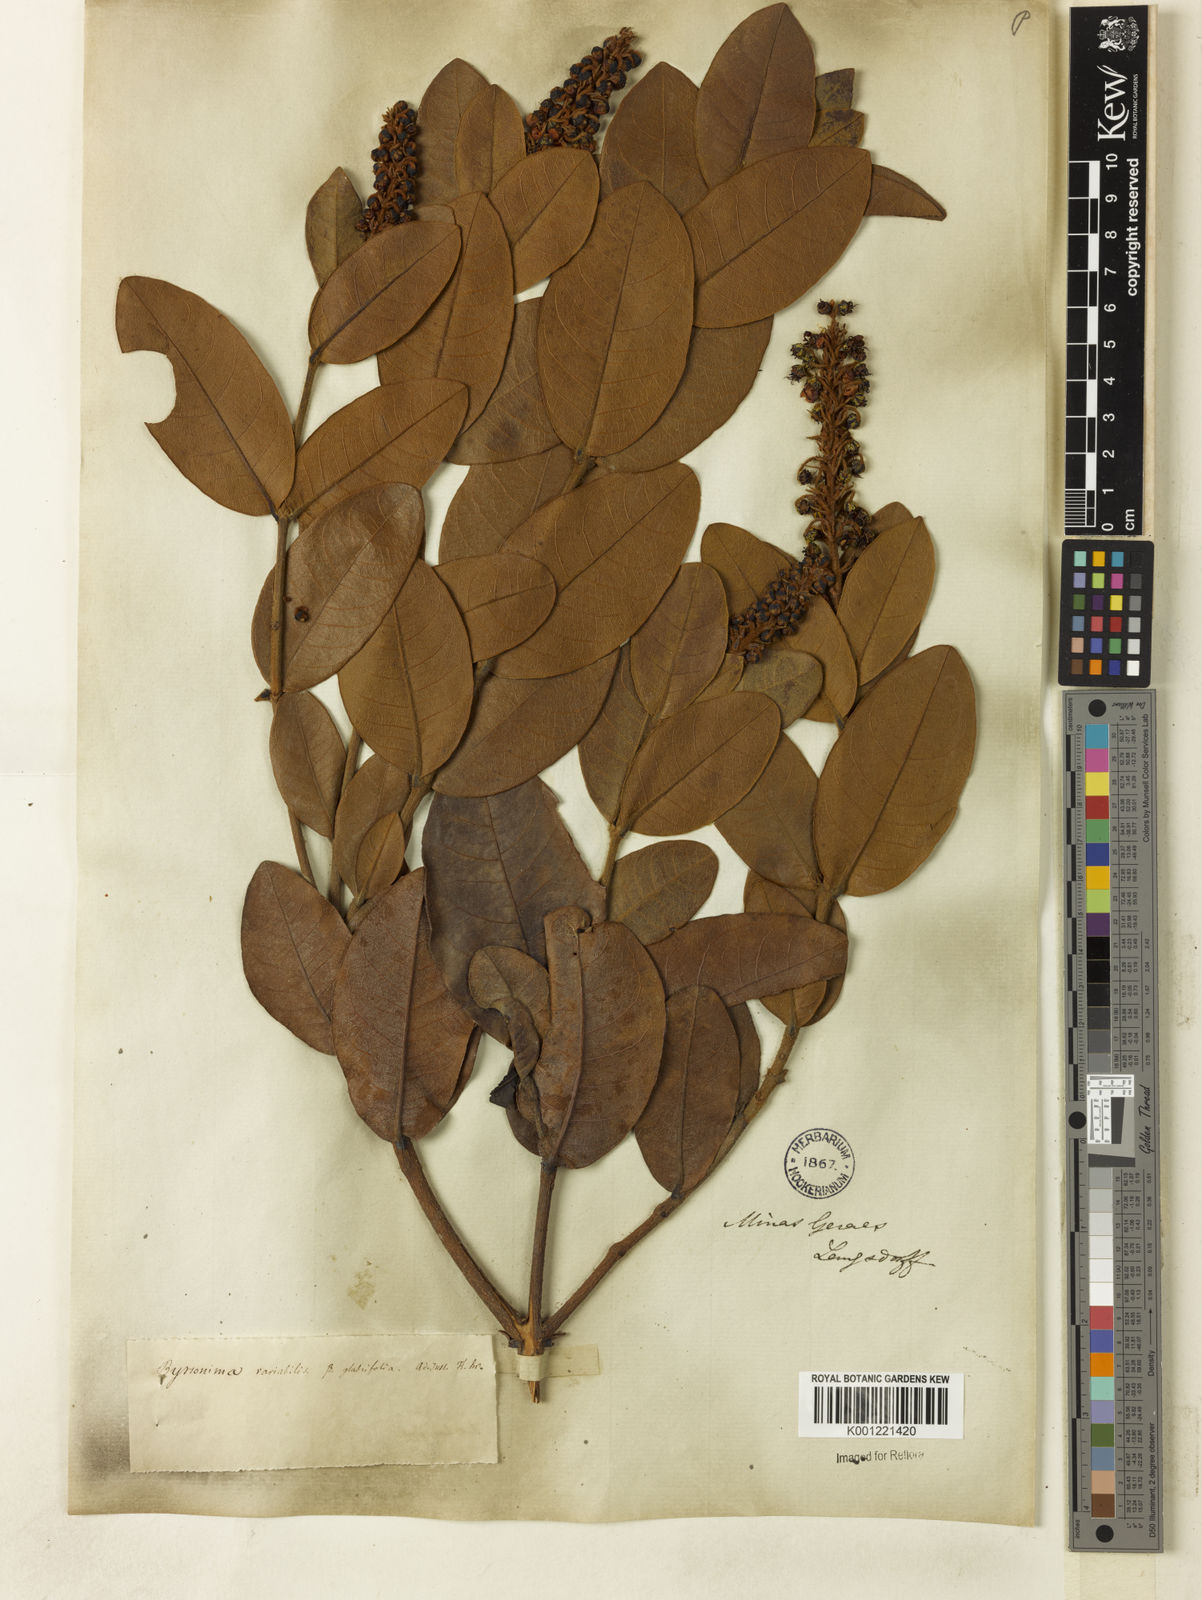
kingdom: Plantae
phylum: Tracheophyta
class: Magnoliopsida
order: Malpighiales
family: Malpighiaceae
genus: Byrsonima
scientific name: Byrsonima variabilis
